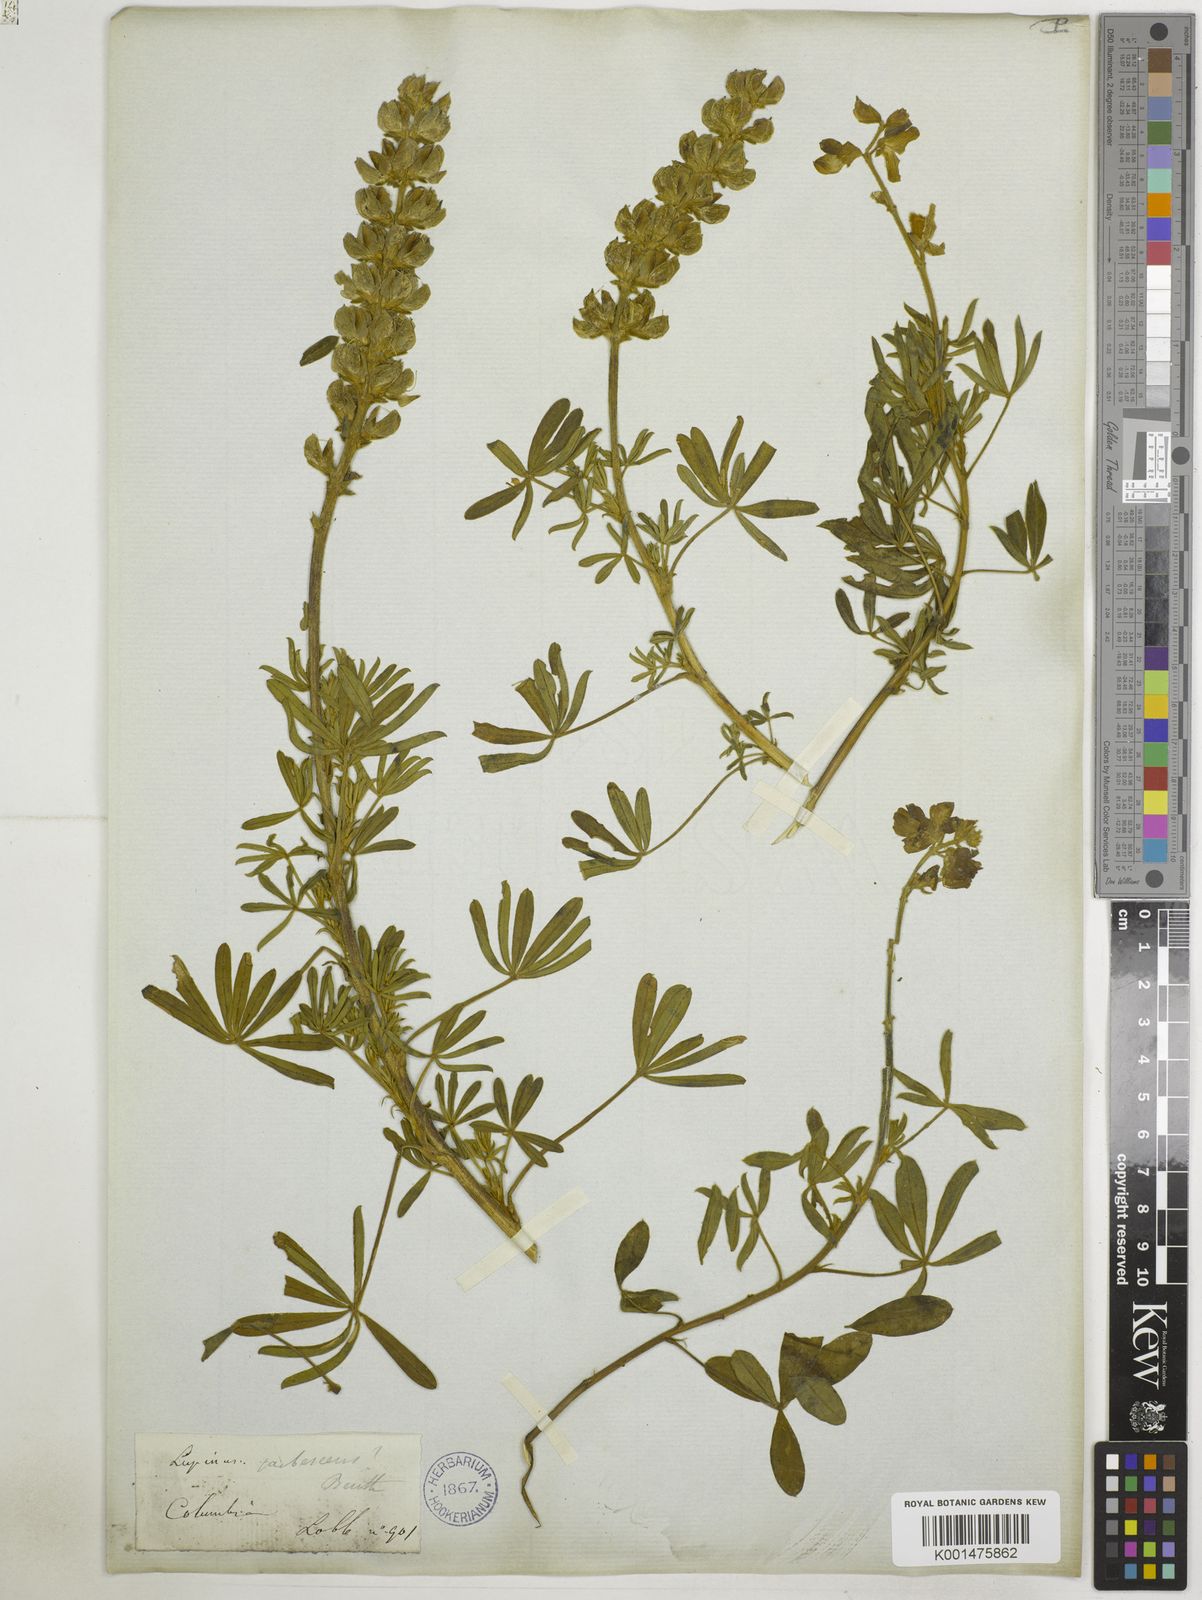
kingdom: Plantae
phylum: Tracheophyta
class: Magnoliopsida
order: Fabales
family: Fabaceae
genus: Lupinus
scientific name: Lupinus pubescens
